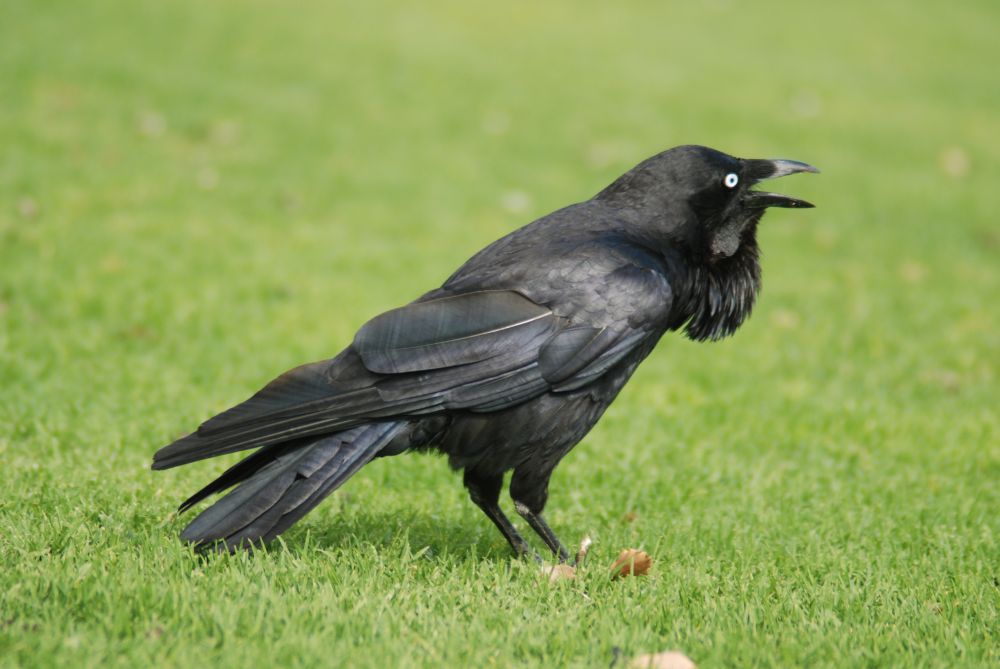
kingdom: Animalia
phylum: Chordata
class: Aves
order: Passeriformes
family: Corvidae
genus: Corvus
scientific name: Corvus coronoides
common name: Australian raven
